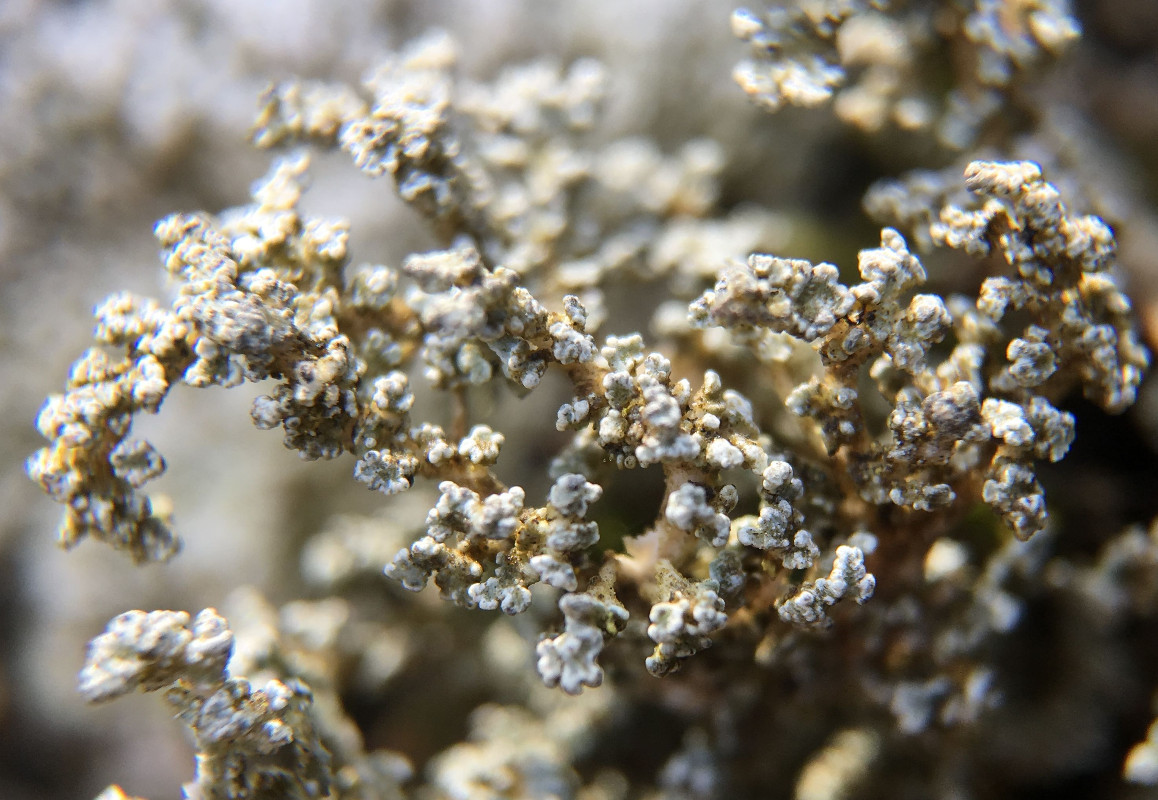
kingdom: Fungi
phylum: Ascomycota
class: Lecanoromycetes
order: Lecanorales
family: Stereocaulaceae
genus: Stereocaulon
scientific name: Stereocaulon vesuvianum
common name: skjold-korallav
